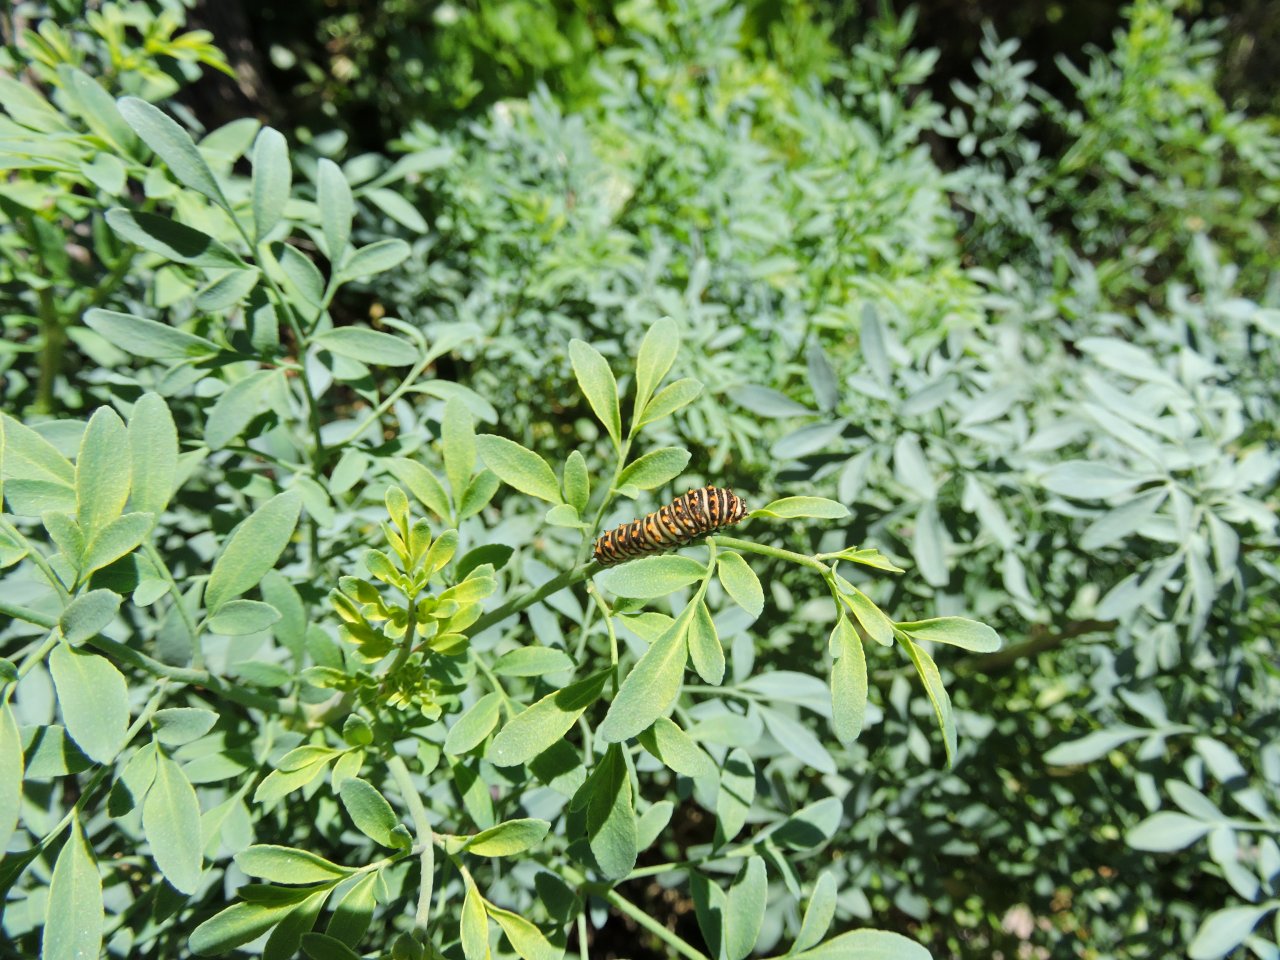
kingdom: Animalia
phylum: Arthropoda
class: Insecta
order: Lepidoptera
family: Papilionidae
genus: Papilio
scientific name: Papilio polyxenes
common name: Black Swallowtail
